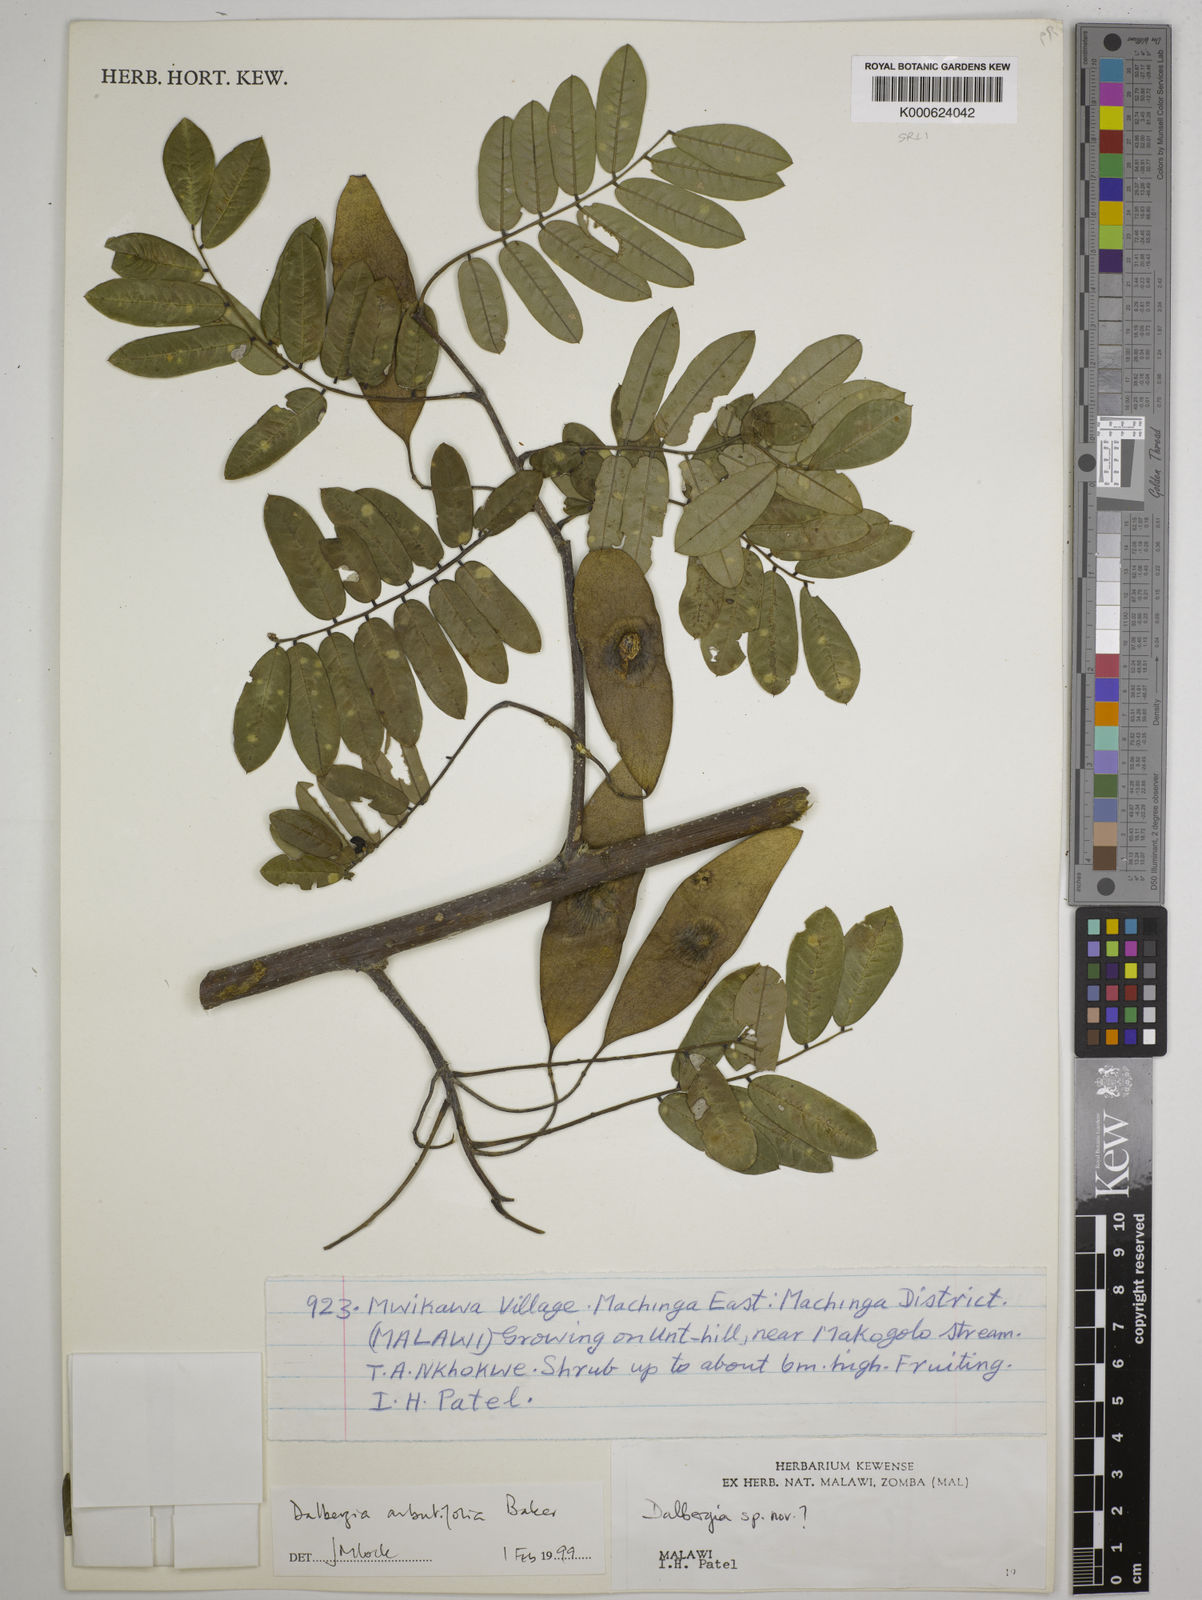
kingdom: Plantae
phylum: Tracheophyta
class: Magnoliopsida
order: Fabales
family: Fabaceae
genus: Dalbergia
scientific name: Dalbergia arbutifolia
